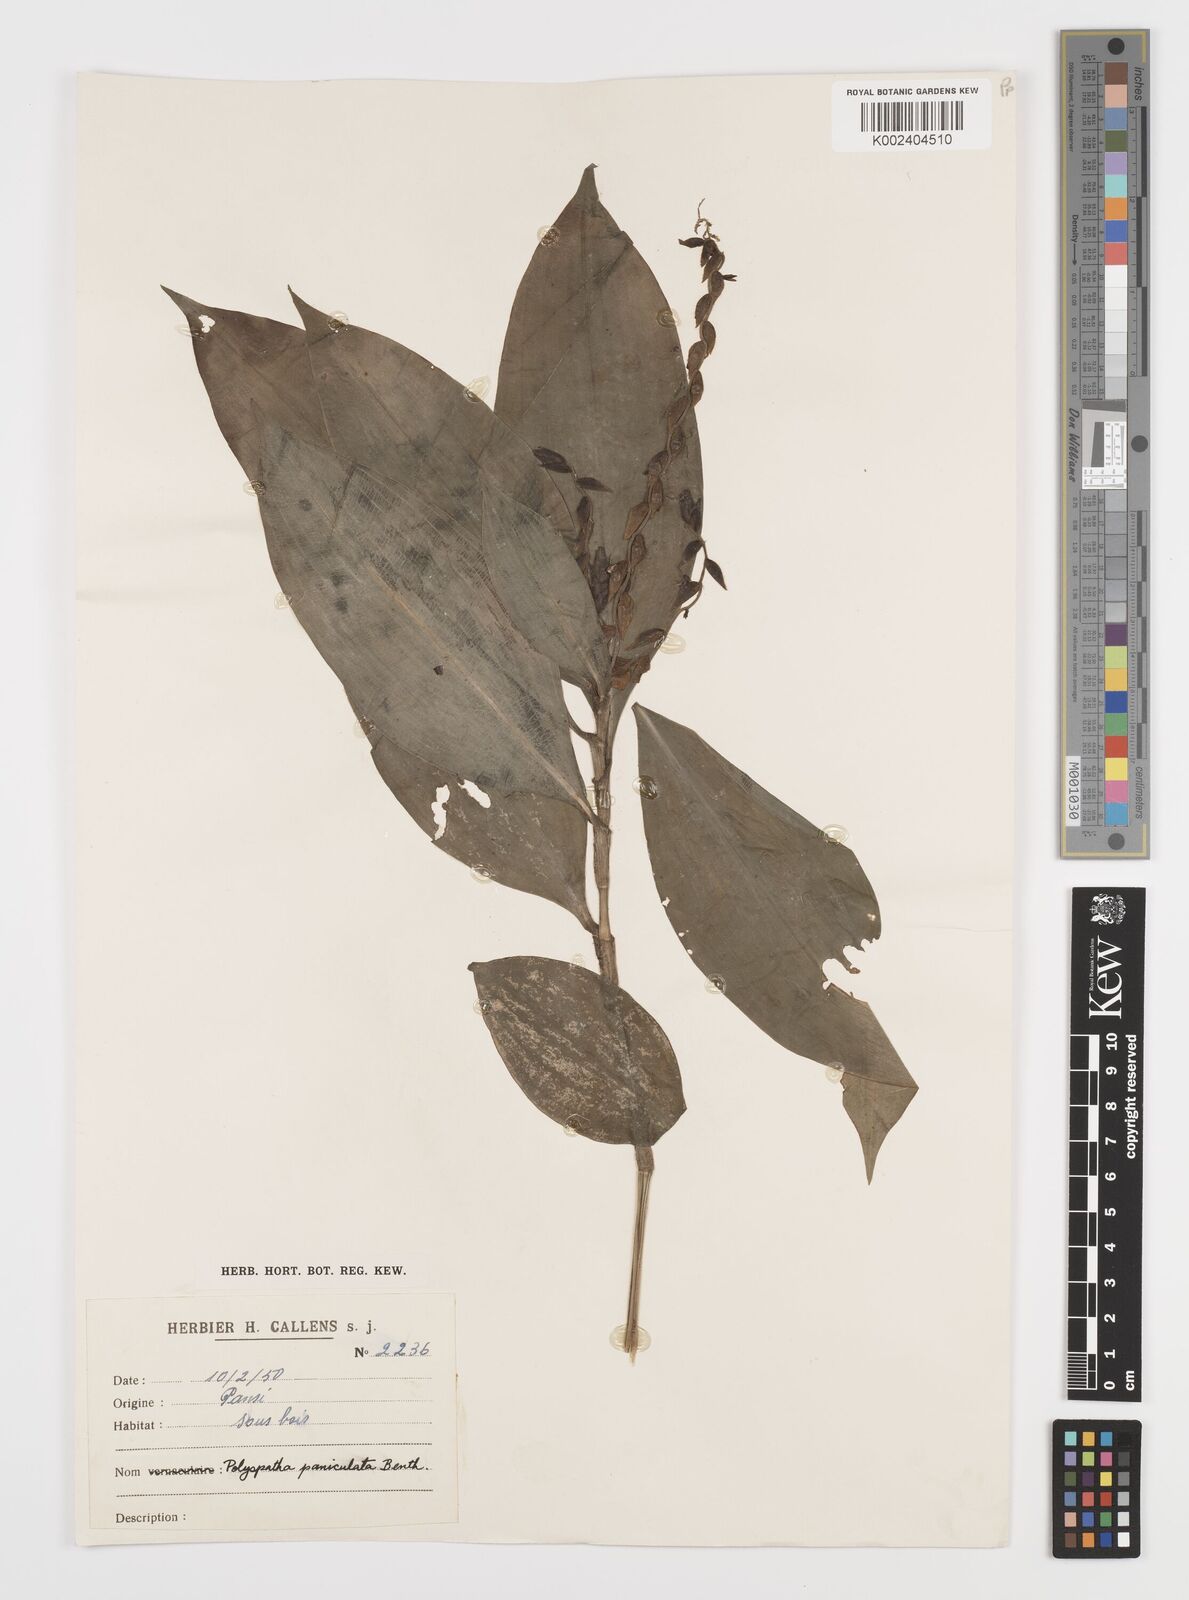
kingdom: Plantae
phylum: Tracheophyta
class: Liliopsida
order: Commelinales
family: Commelinaceae
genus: Polyspatha
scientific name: Polyspatha paniculata
